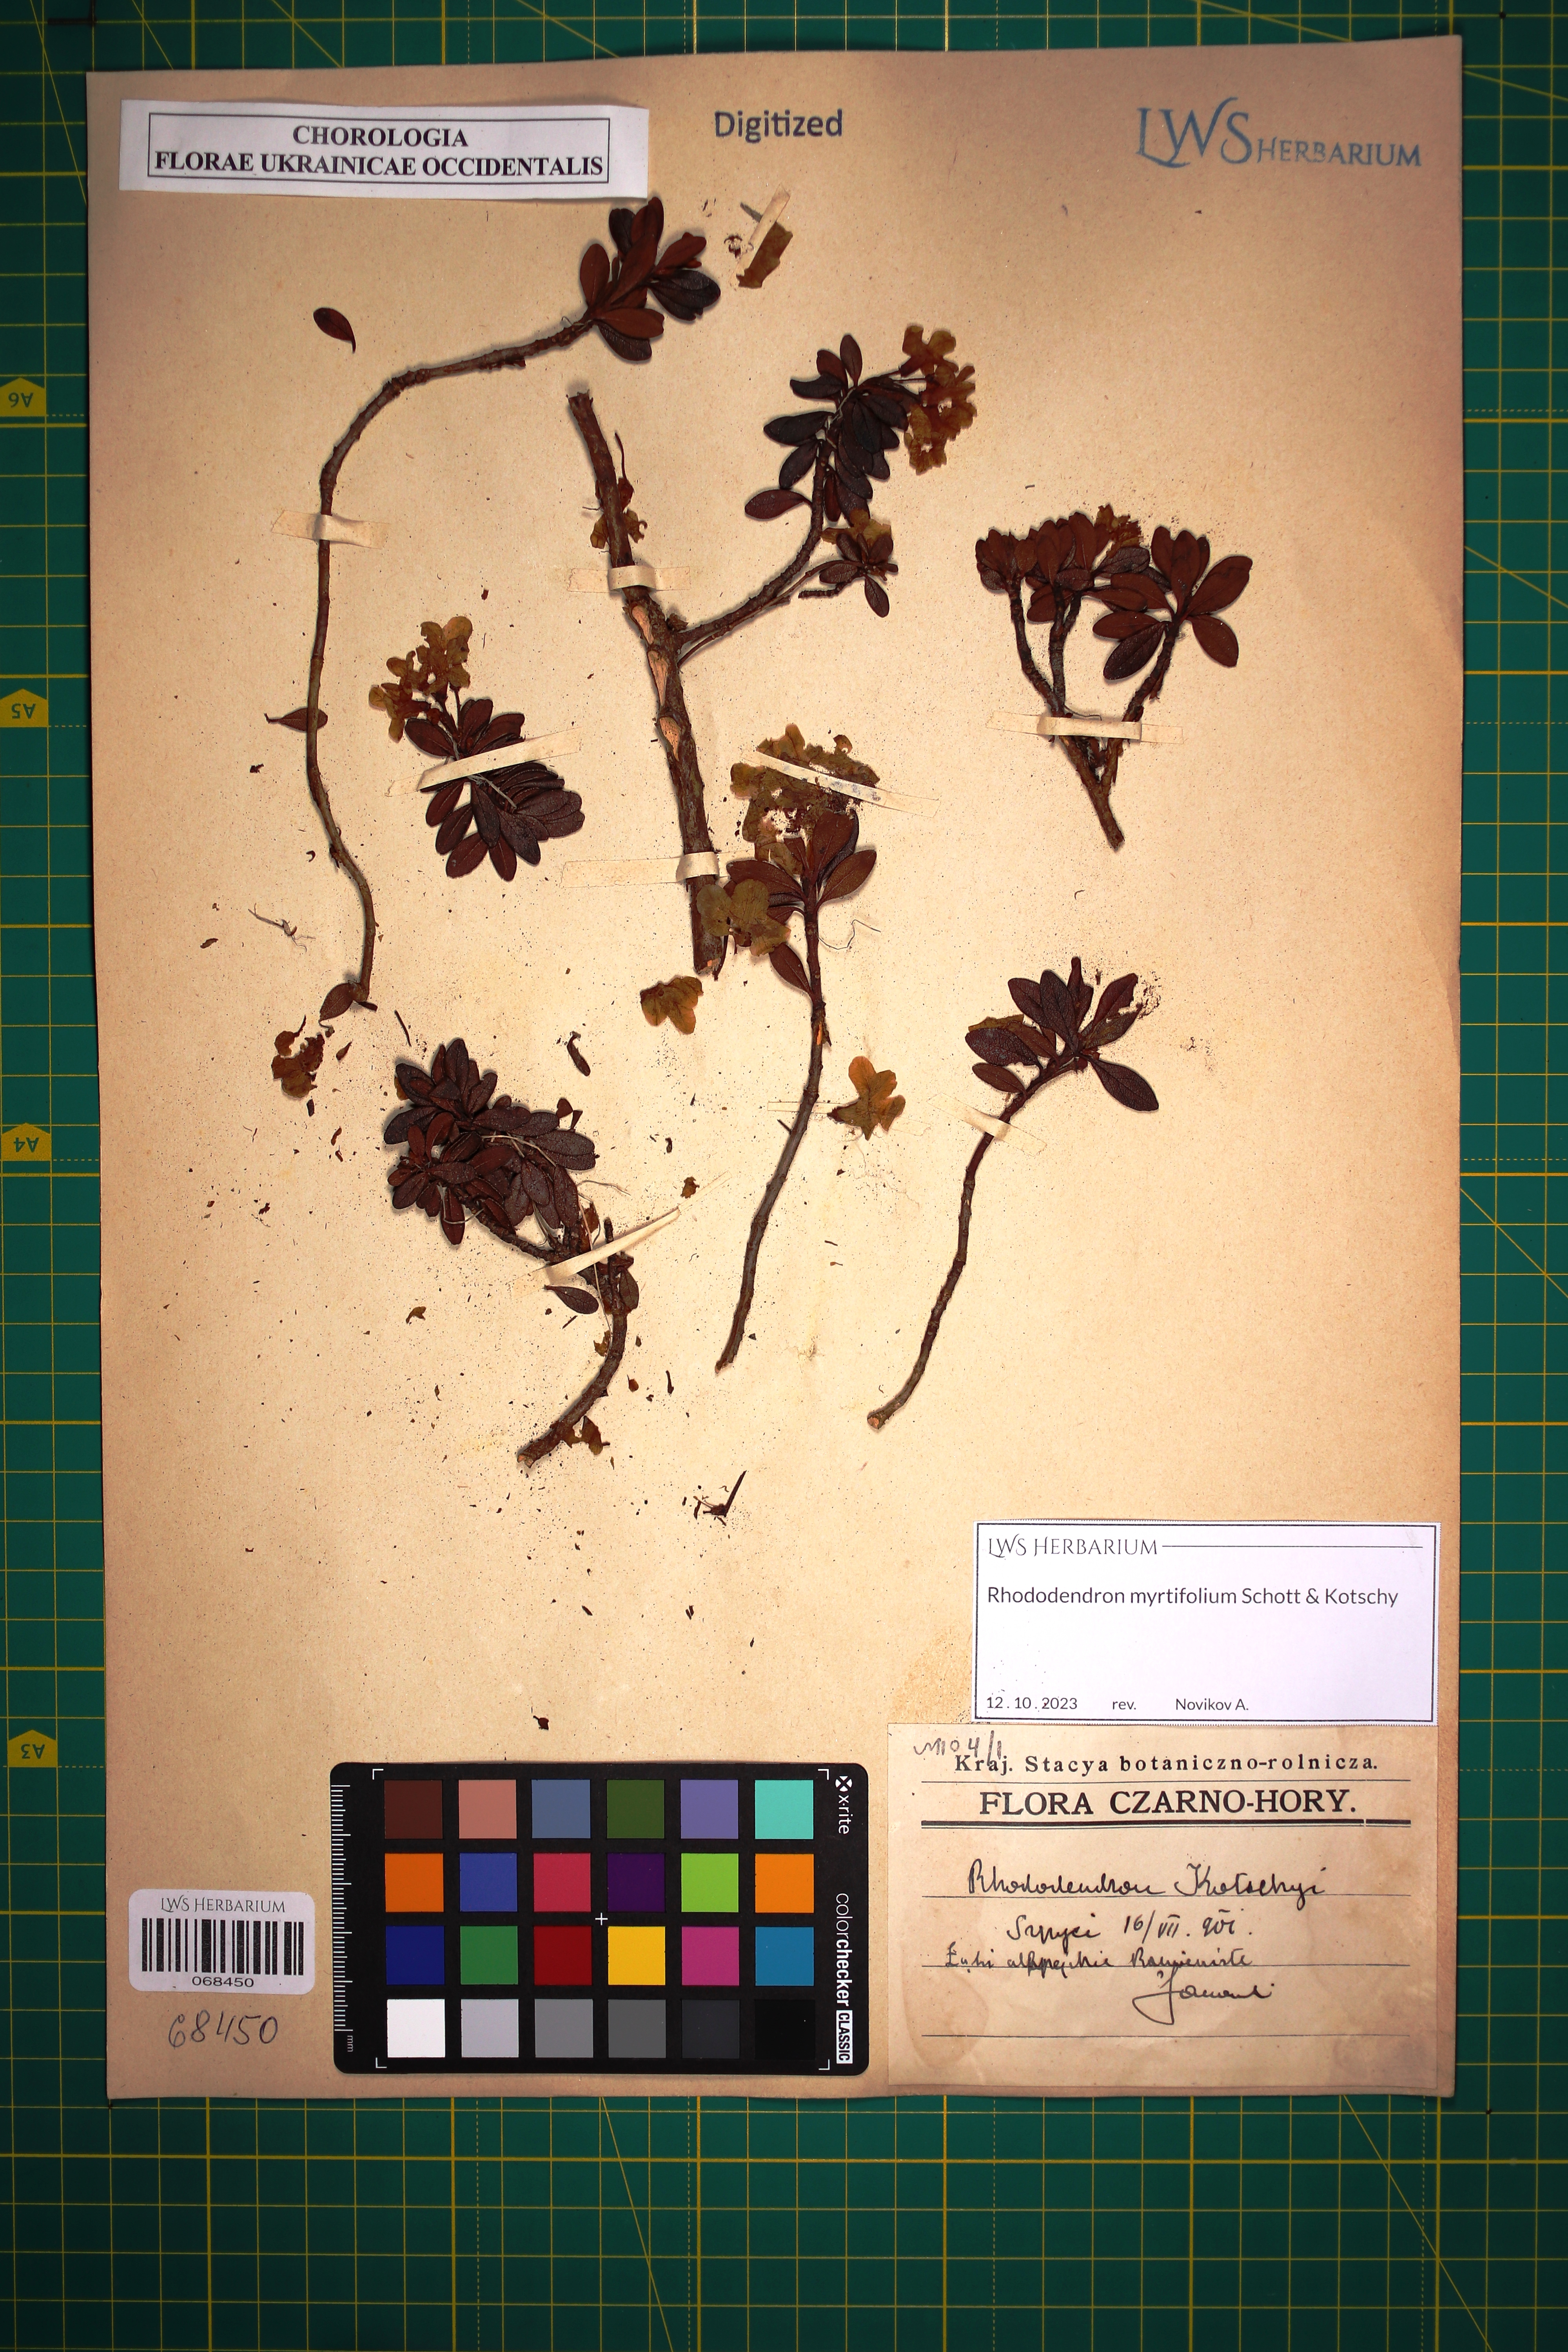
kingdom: Plantae
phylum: Tracheophyta
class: Magnoliopsida
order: Ericales
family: Ericaceae
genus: Rhododendron
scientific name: Rhododendron kotschyi
